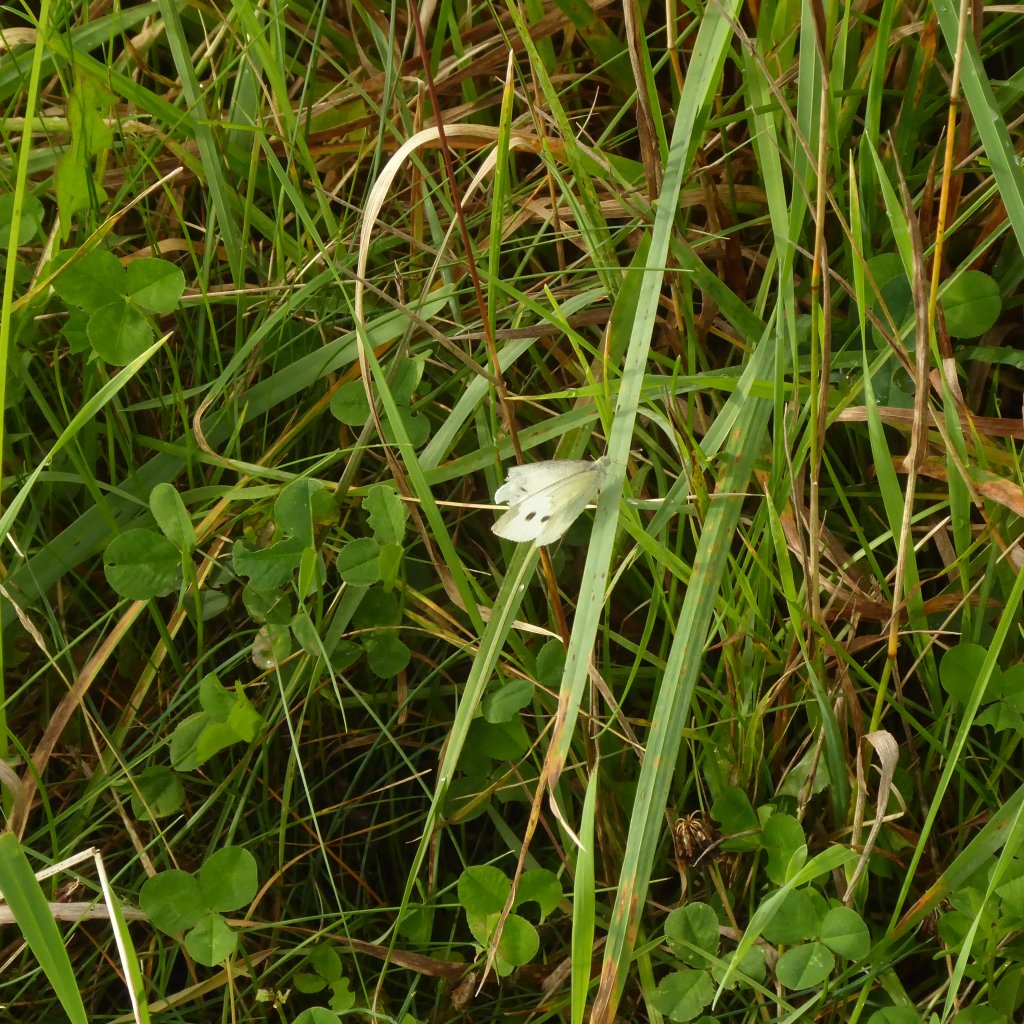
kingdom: Animalia
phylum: Arthropoda
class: Insecta
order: Lepidoptera
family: Pieridae
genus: Pieris
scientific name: Pieris rapae
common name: Cabbage White
